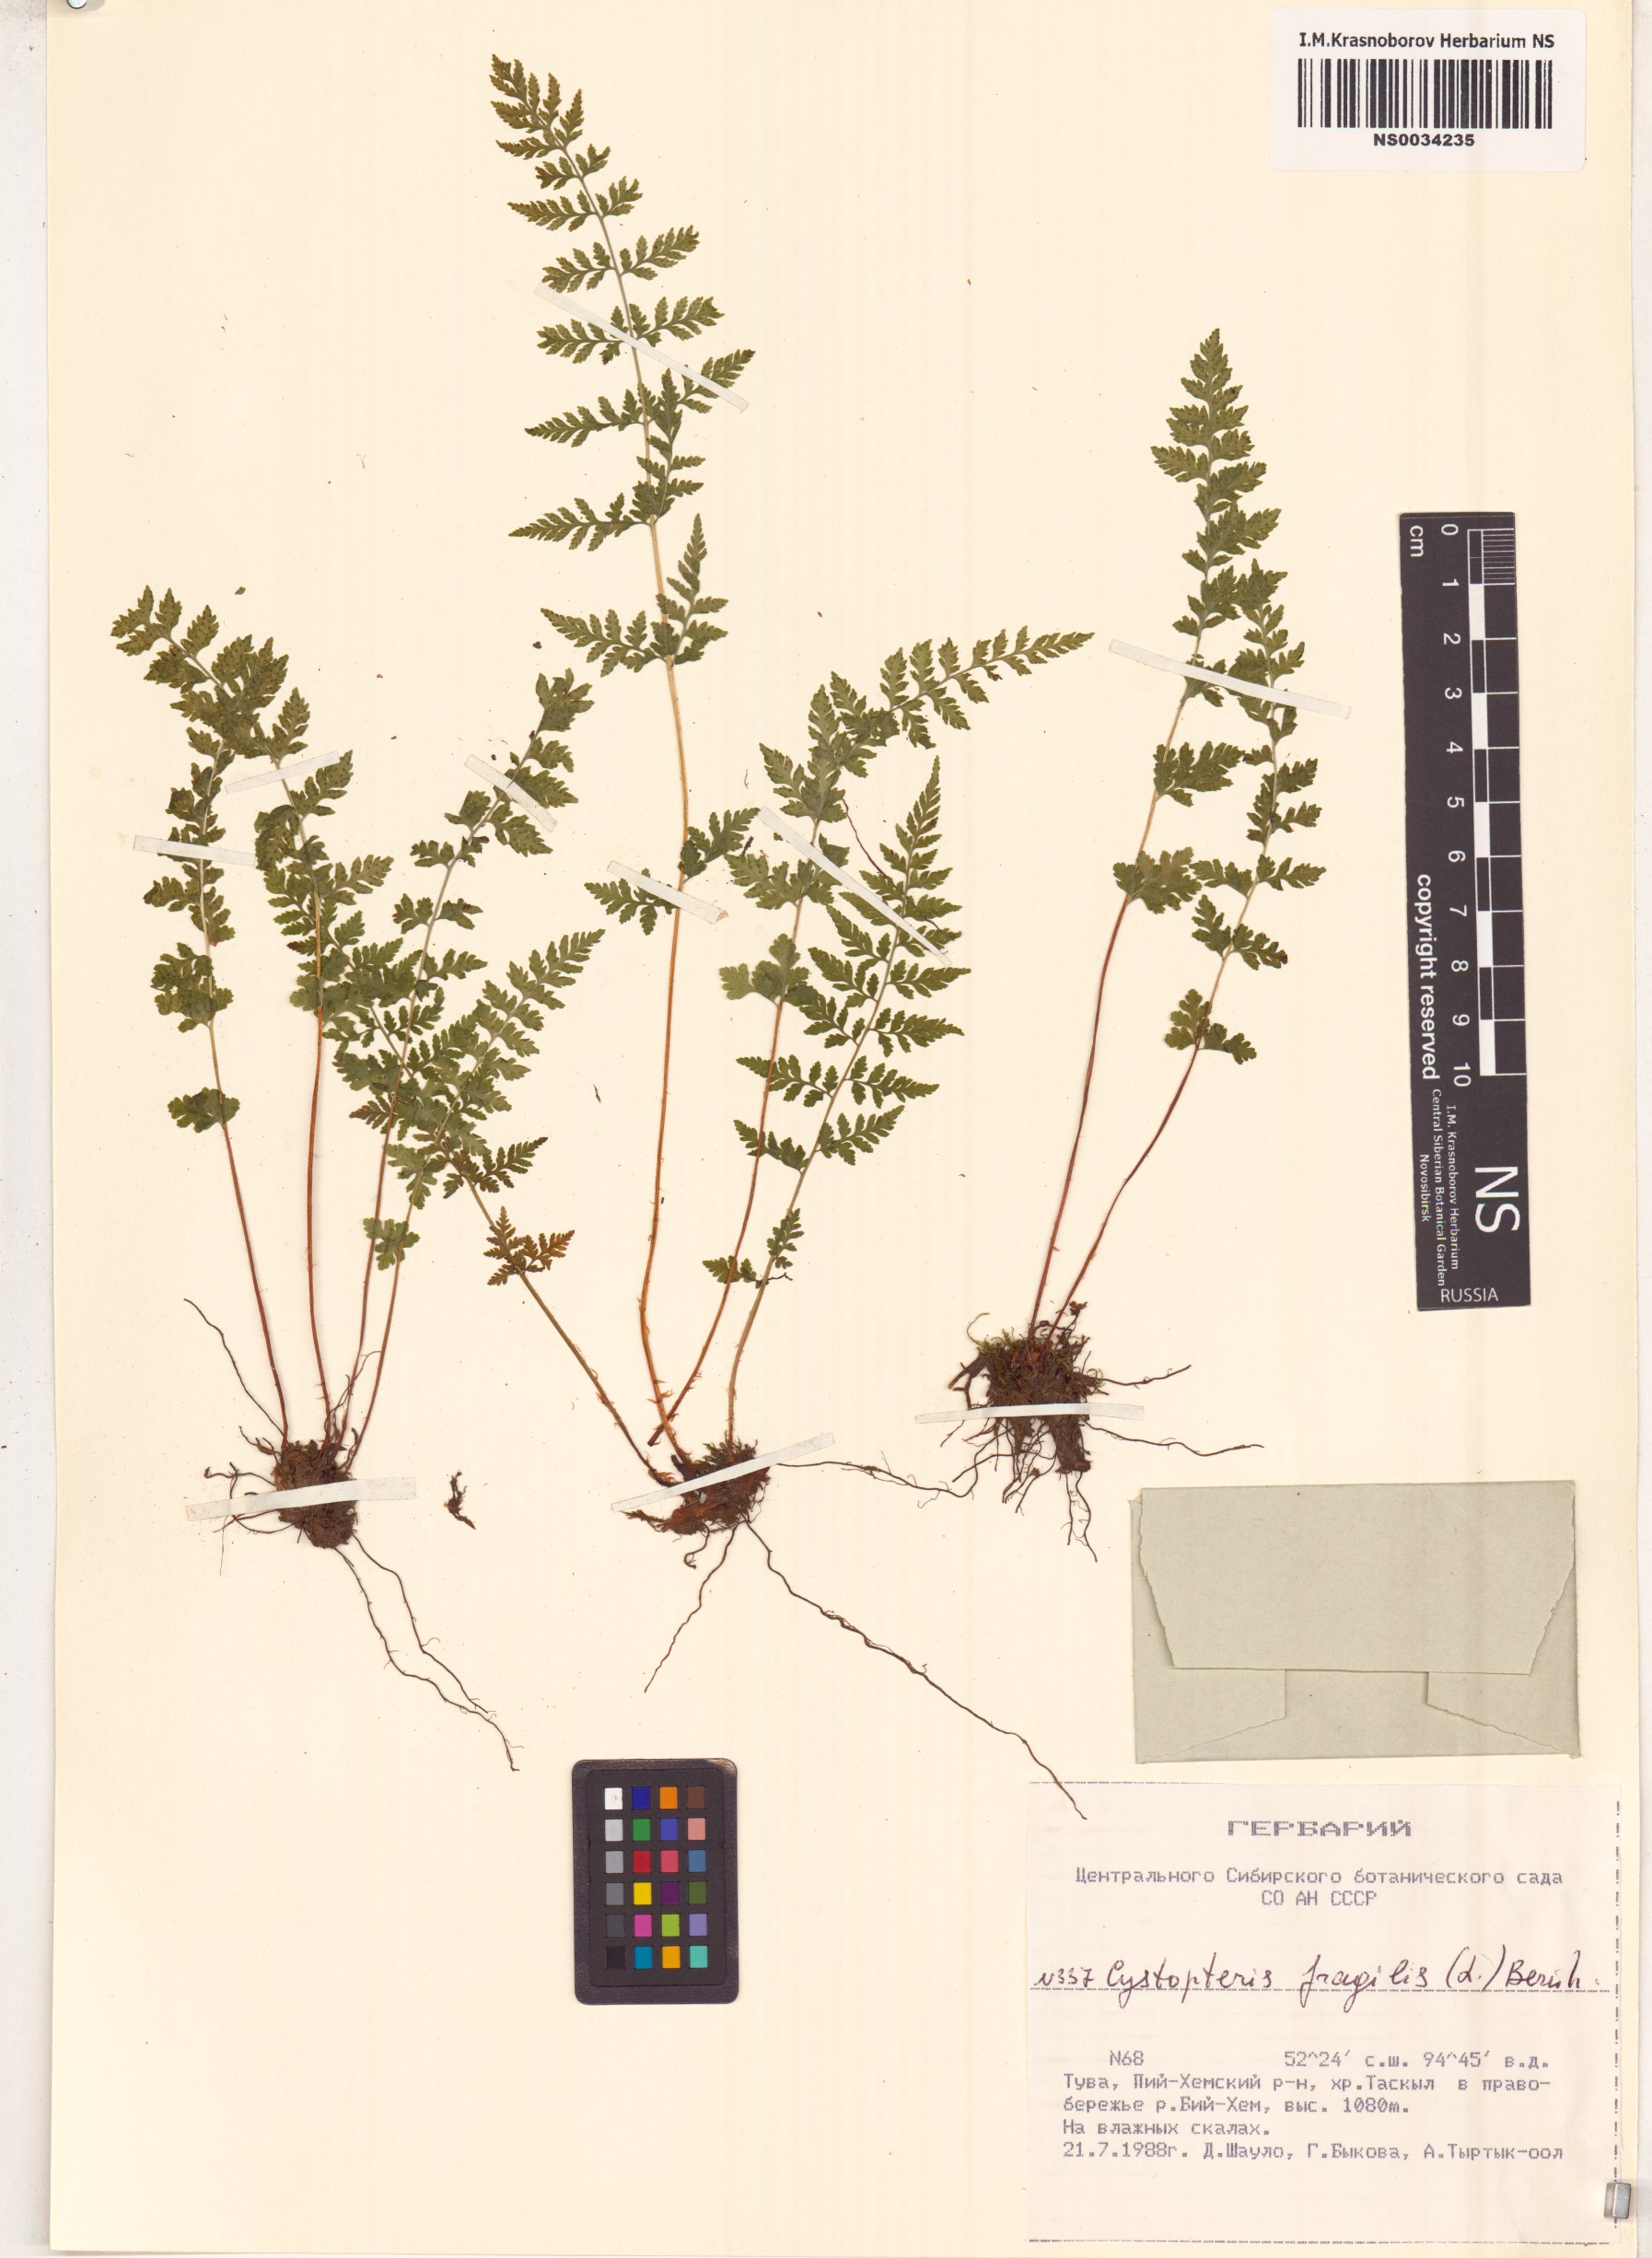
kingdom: Plantae
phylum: Tracheophyta
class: Polypodiopsida
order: Polypodiales
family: Cystopteridaceae
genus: Cystopteris
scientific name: Cystopteris fragilis
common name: Brittle bladder fern
